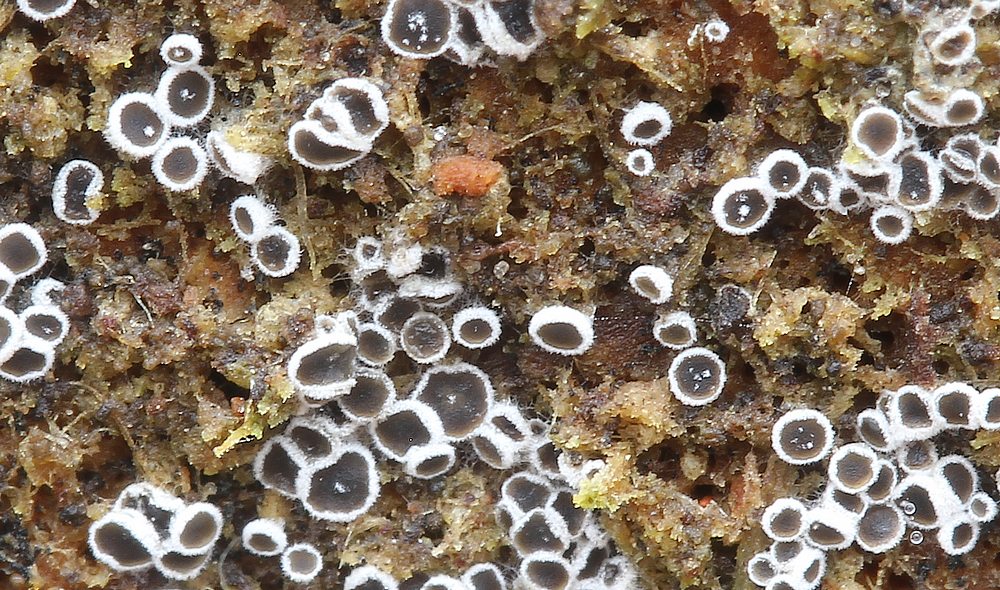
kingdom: Fungi
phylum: Ascomycota
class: Leotiomycetes
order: Helotiales
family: Arachnopezizaceae
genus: Eriopezia
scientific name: Eriopezia caesia
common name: ege-spindskive
